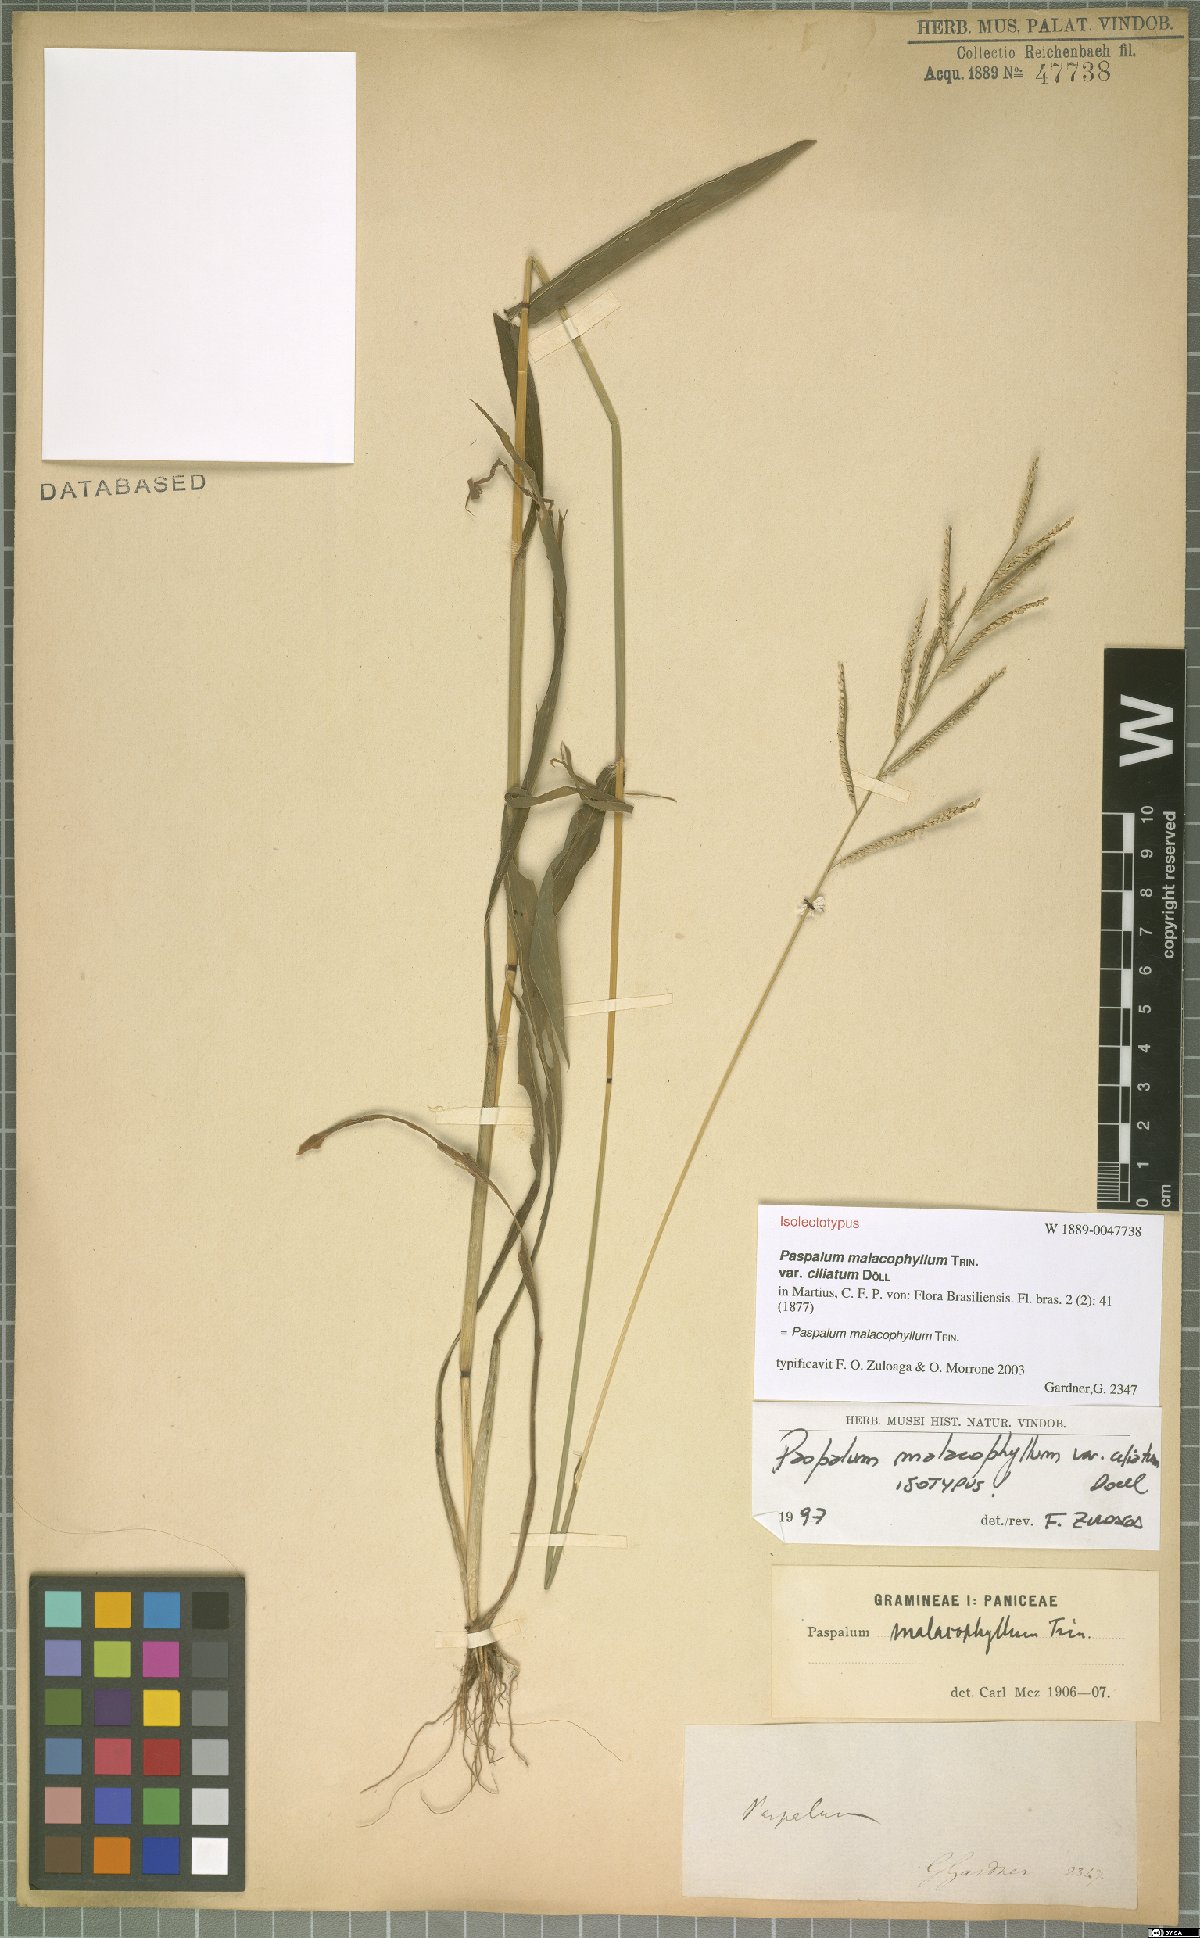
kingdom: Plantae
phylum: Tracheophyta
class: Liliopsida
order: Poales
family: Poaceae
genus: Paspalum
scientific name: Paspalum malacophyllum
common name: Ribbed paspalum
